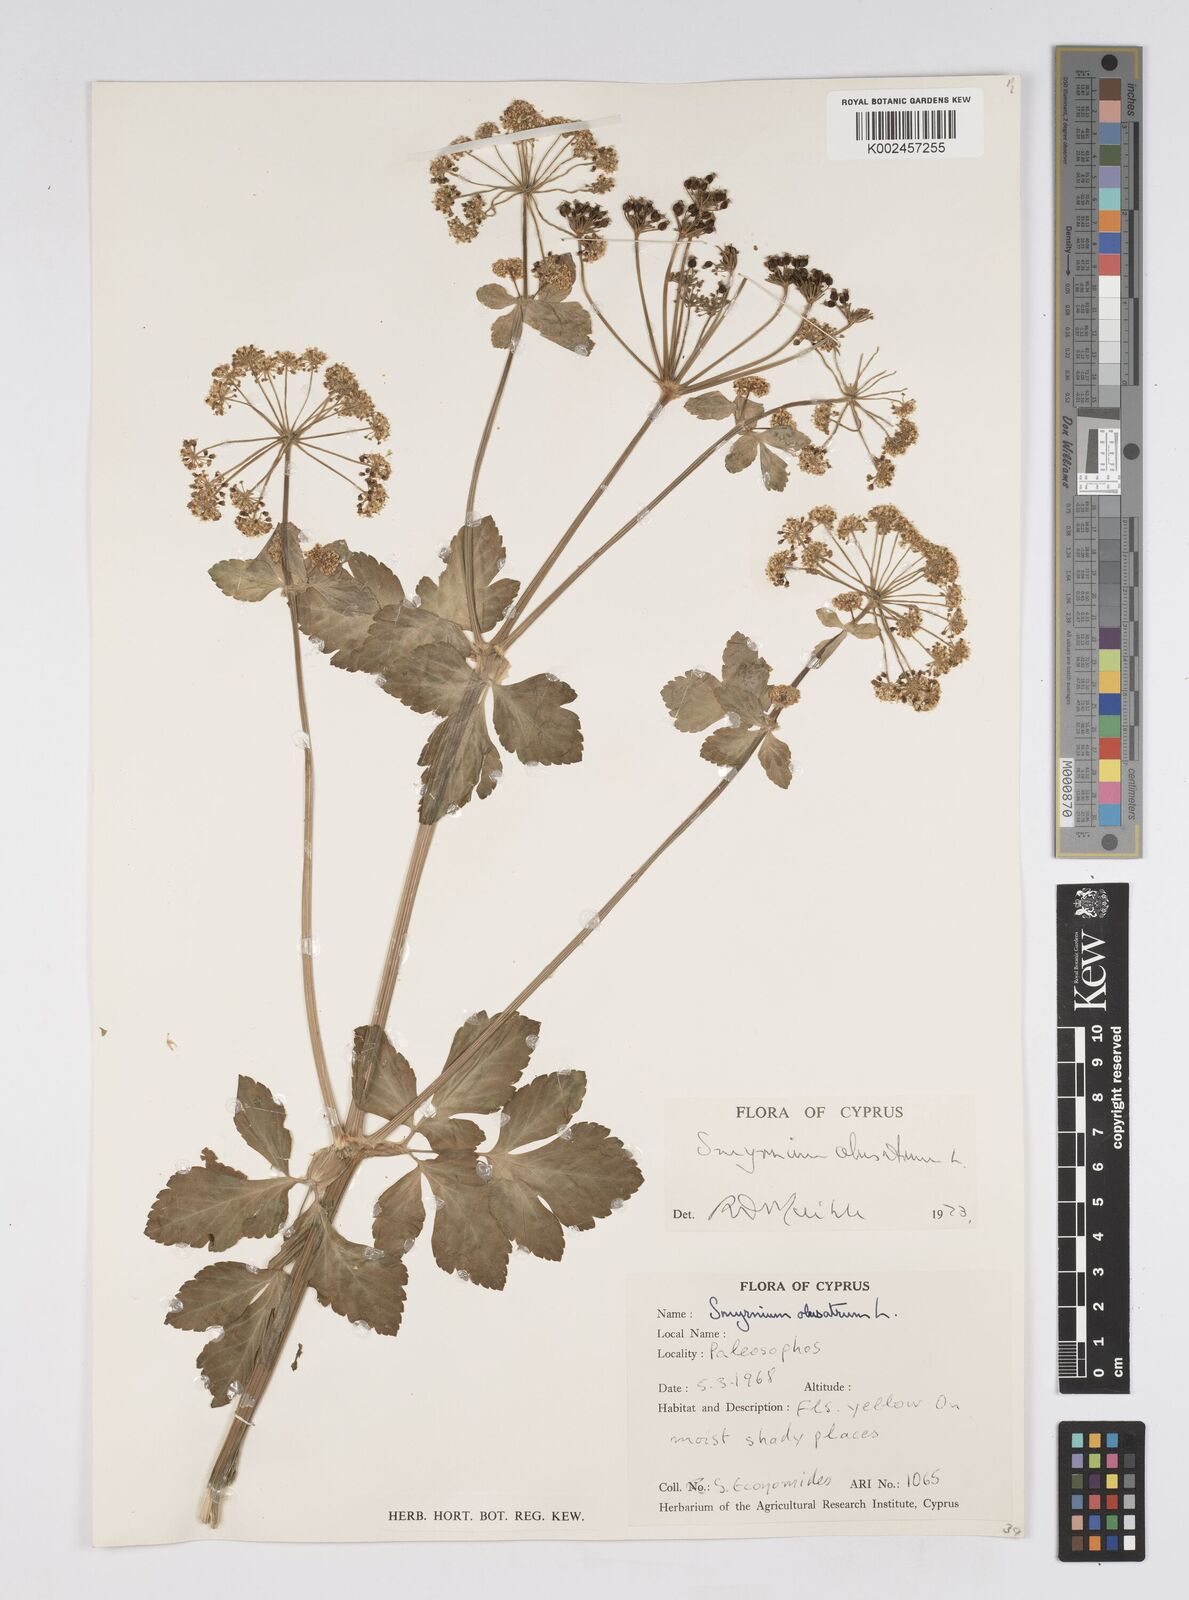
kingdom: Plantae
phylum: Tracheophyta
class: Magnoliopsida
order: Apiales
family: Apiaceae
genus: Smyrnium
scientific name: Smyrnium olusatrum
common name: Alexanders
